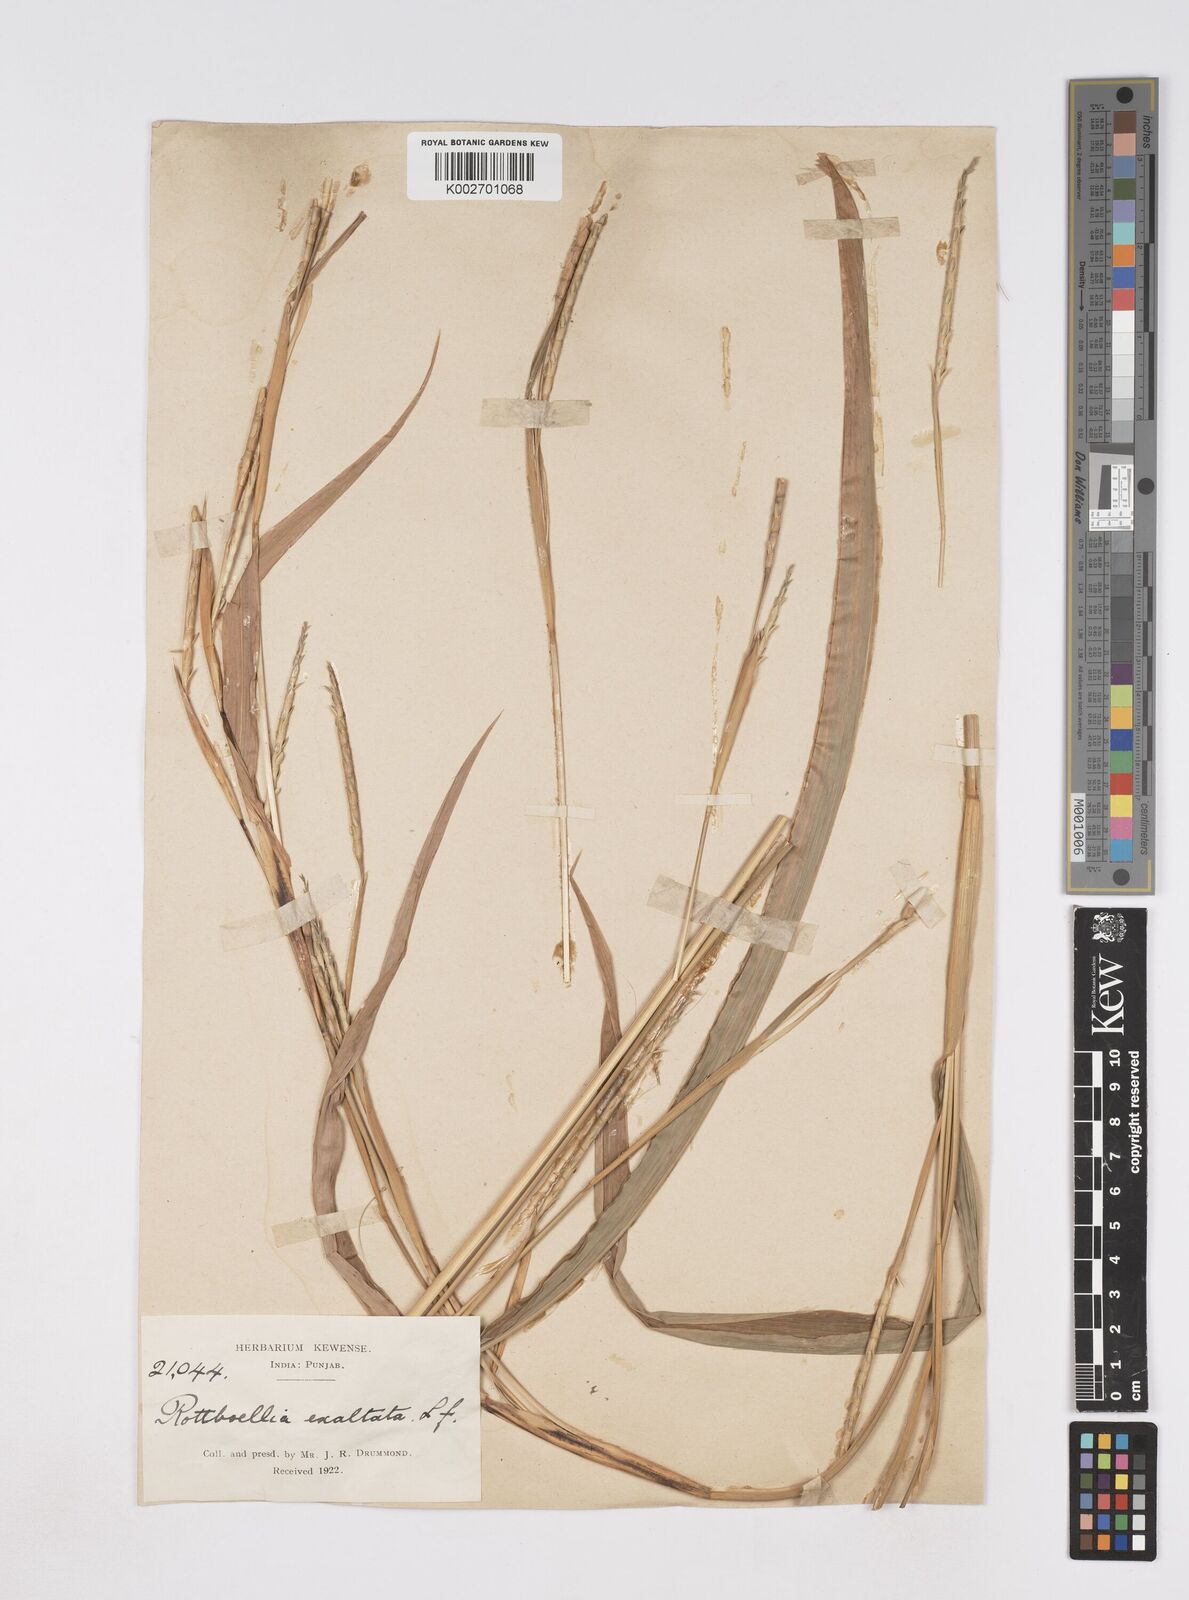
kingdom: Plantae
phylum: Tracheophyta
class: Liliopsida
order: Poales
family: Poaceae
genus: Ophiuros
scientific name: Ophiuros exaltatus
